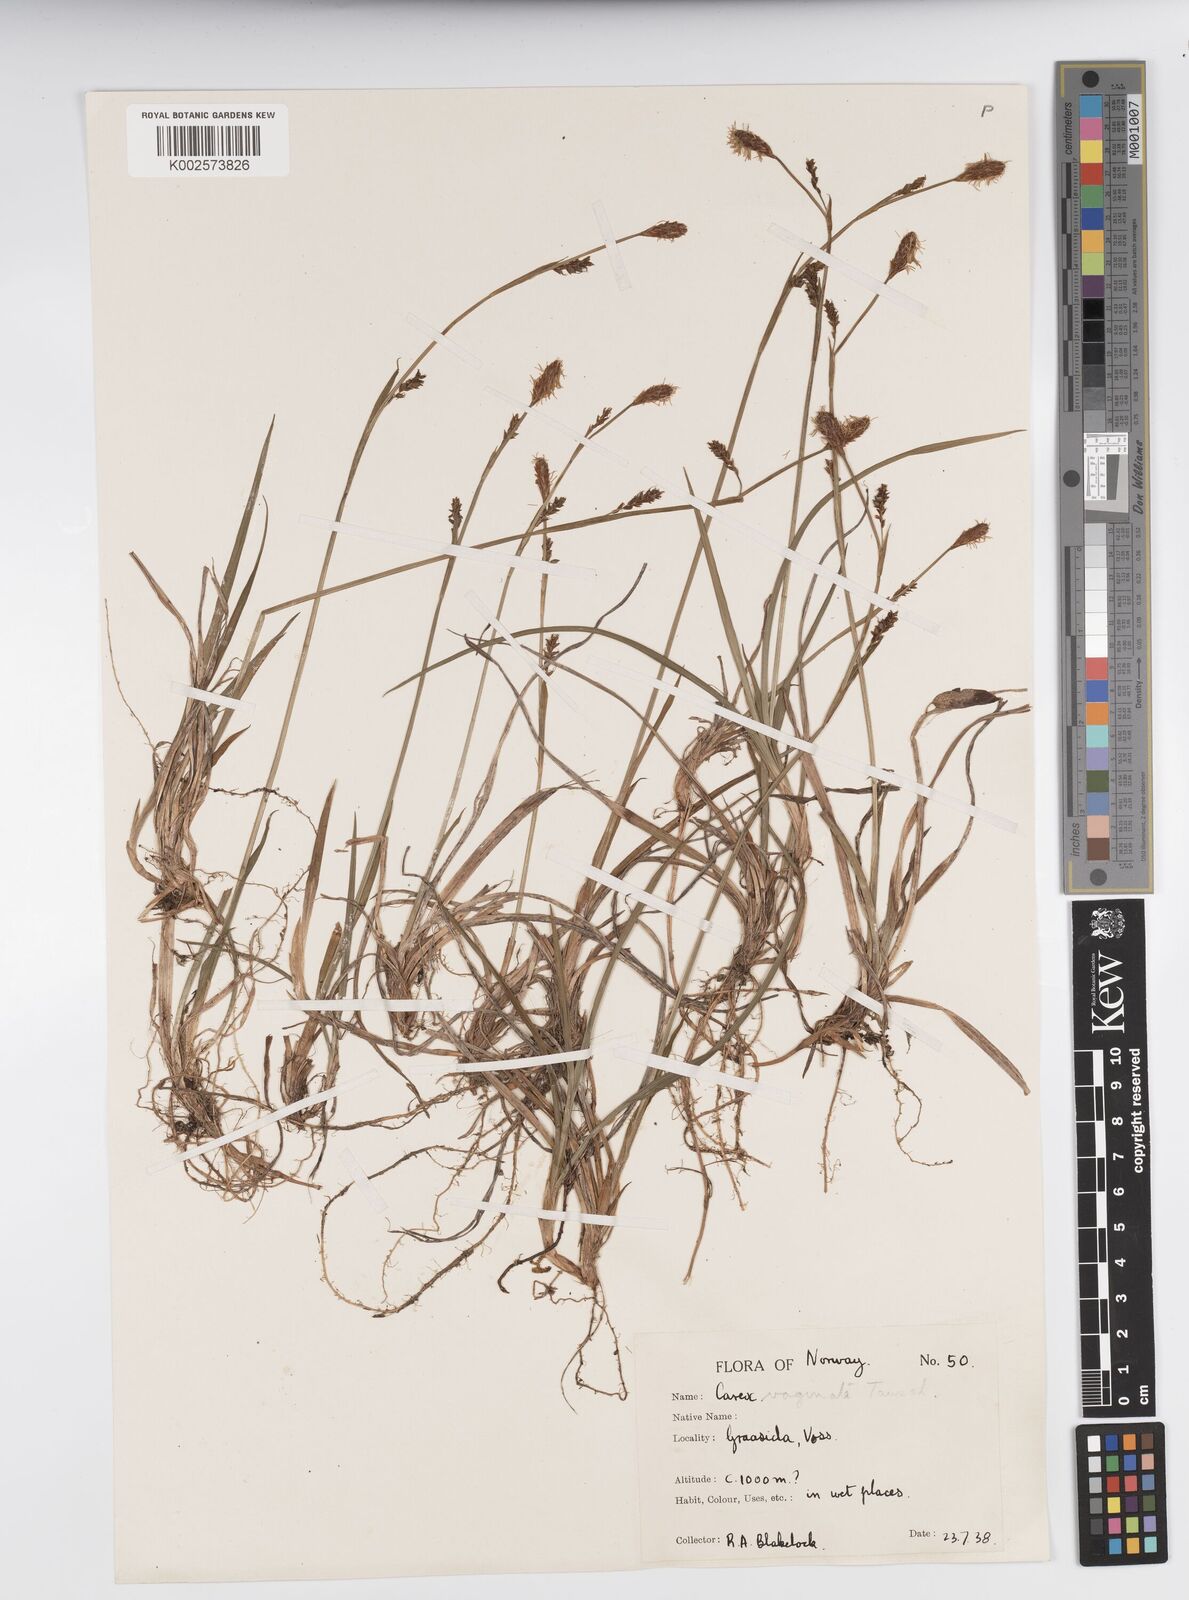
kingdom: Plantae
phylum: Tracheophyta
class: Liliopsida
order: Poales
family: Cyperaceae
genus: Carex
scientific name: Carex vaginata
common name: Sheathed sedge
